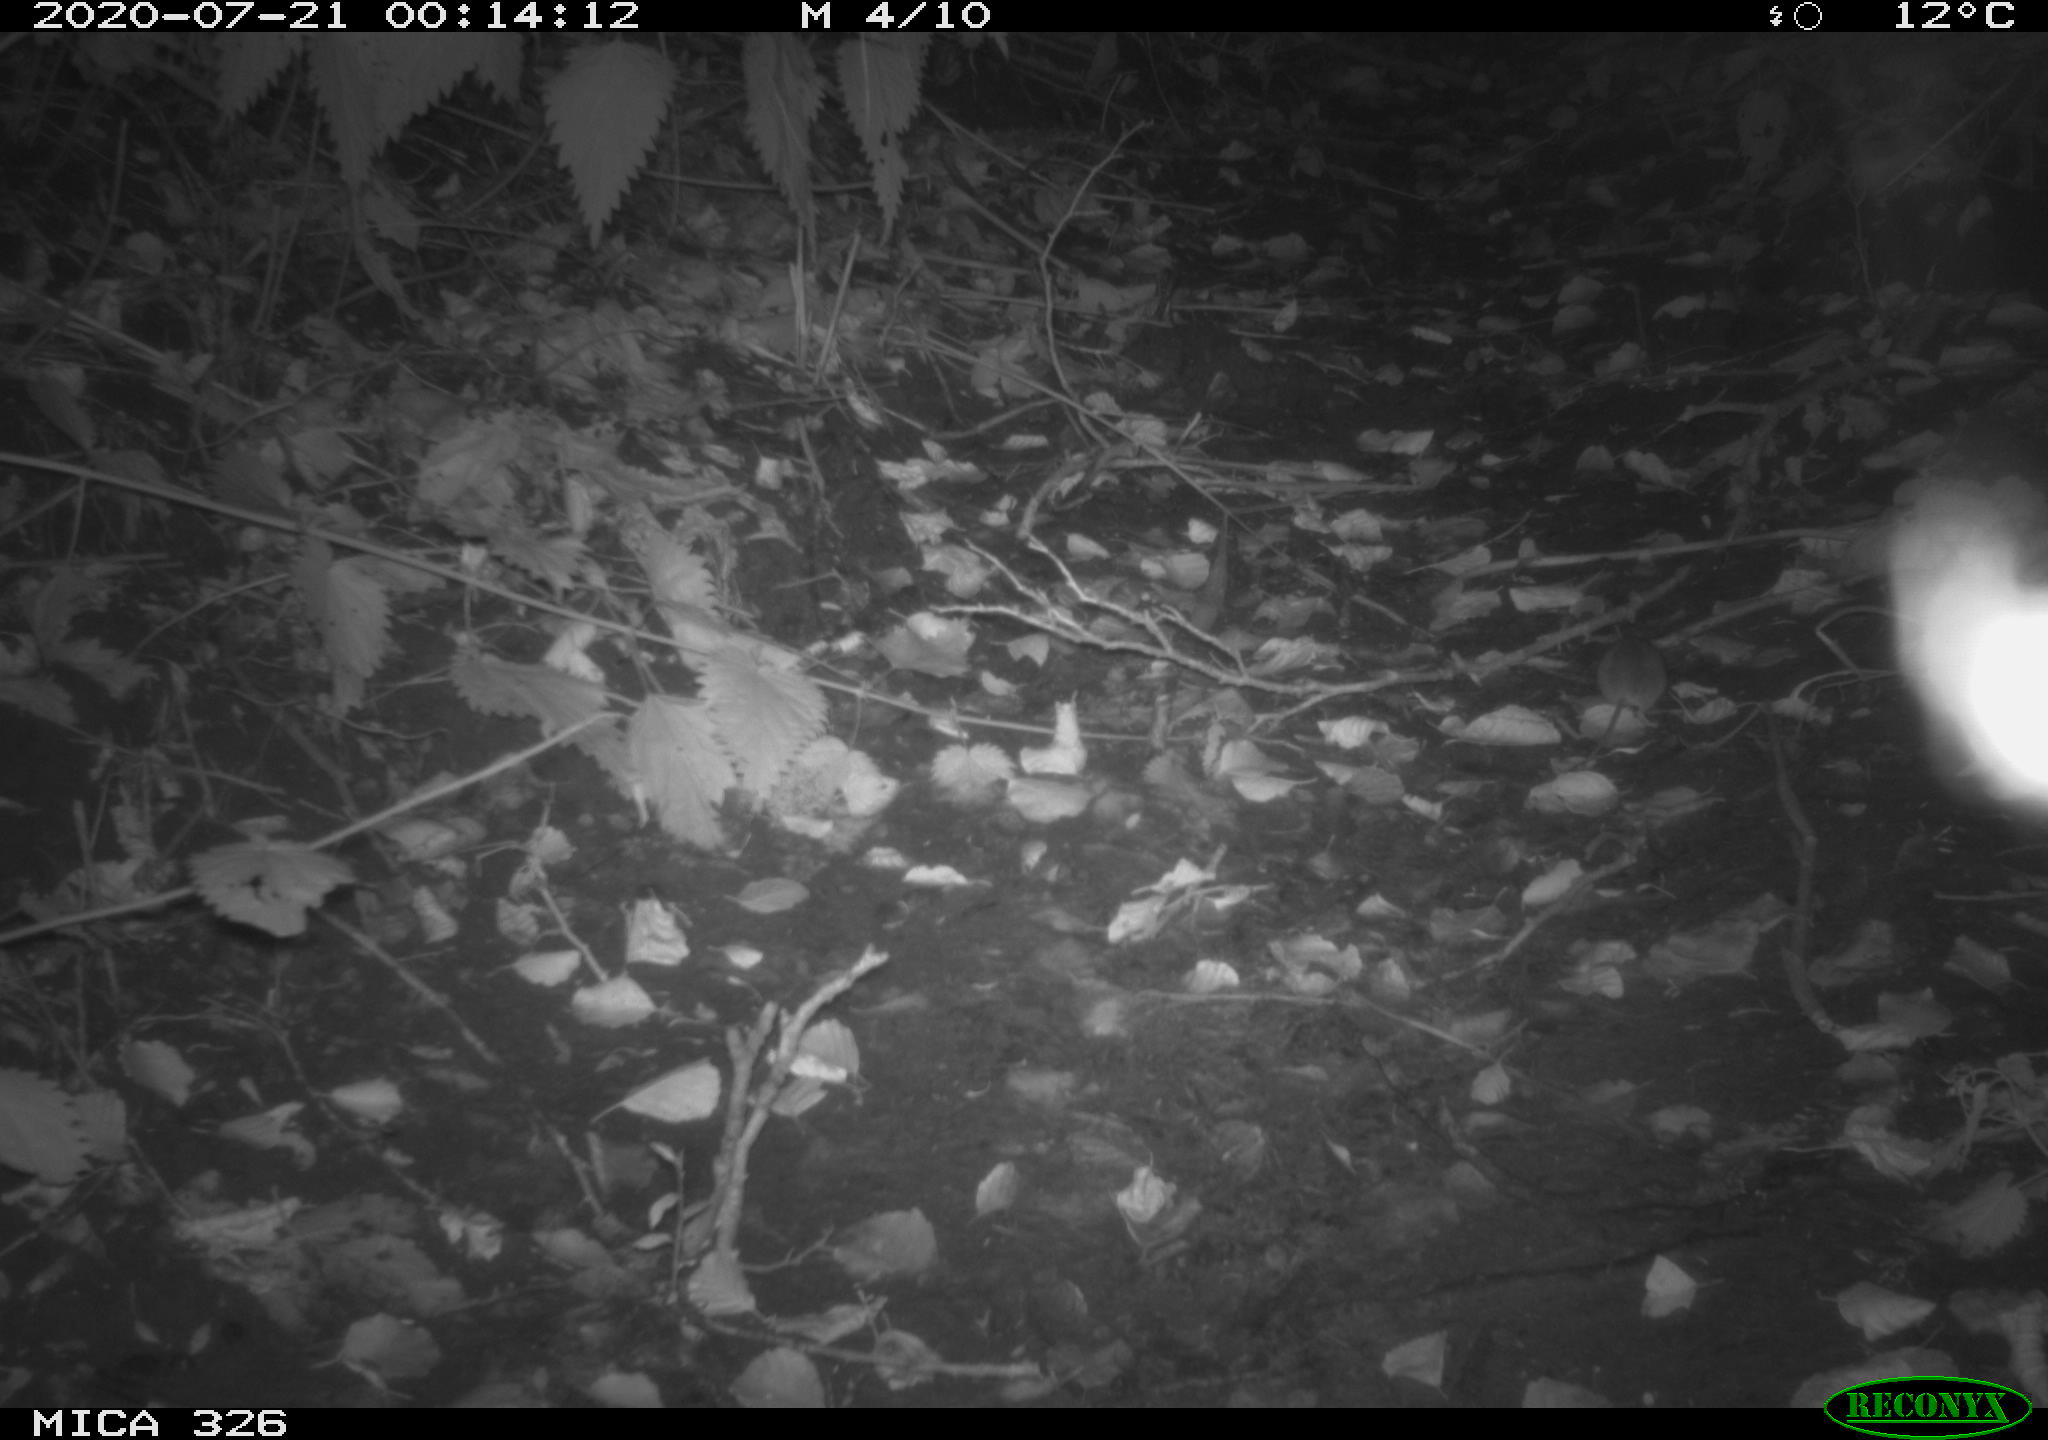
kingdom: Animalia
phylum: Chordata
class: Mammalia
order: Rodentia
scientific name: Rodentia
